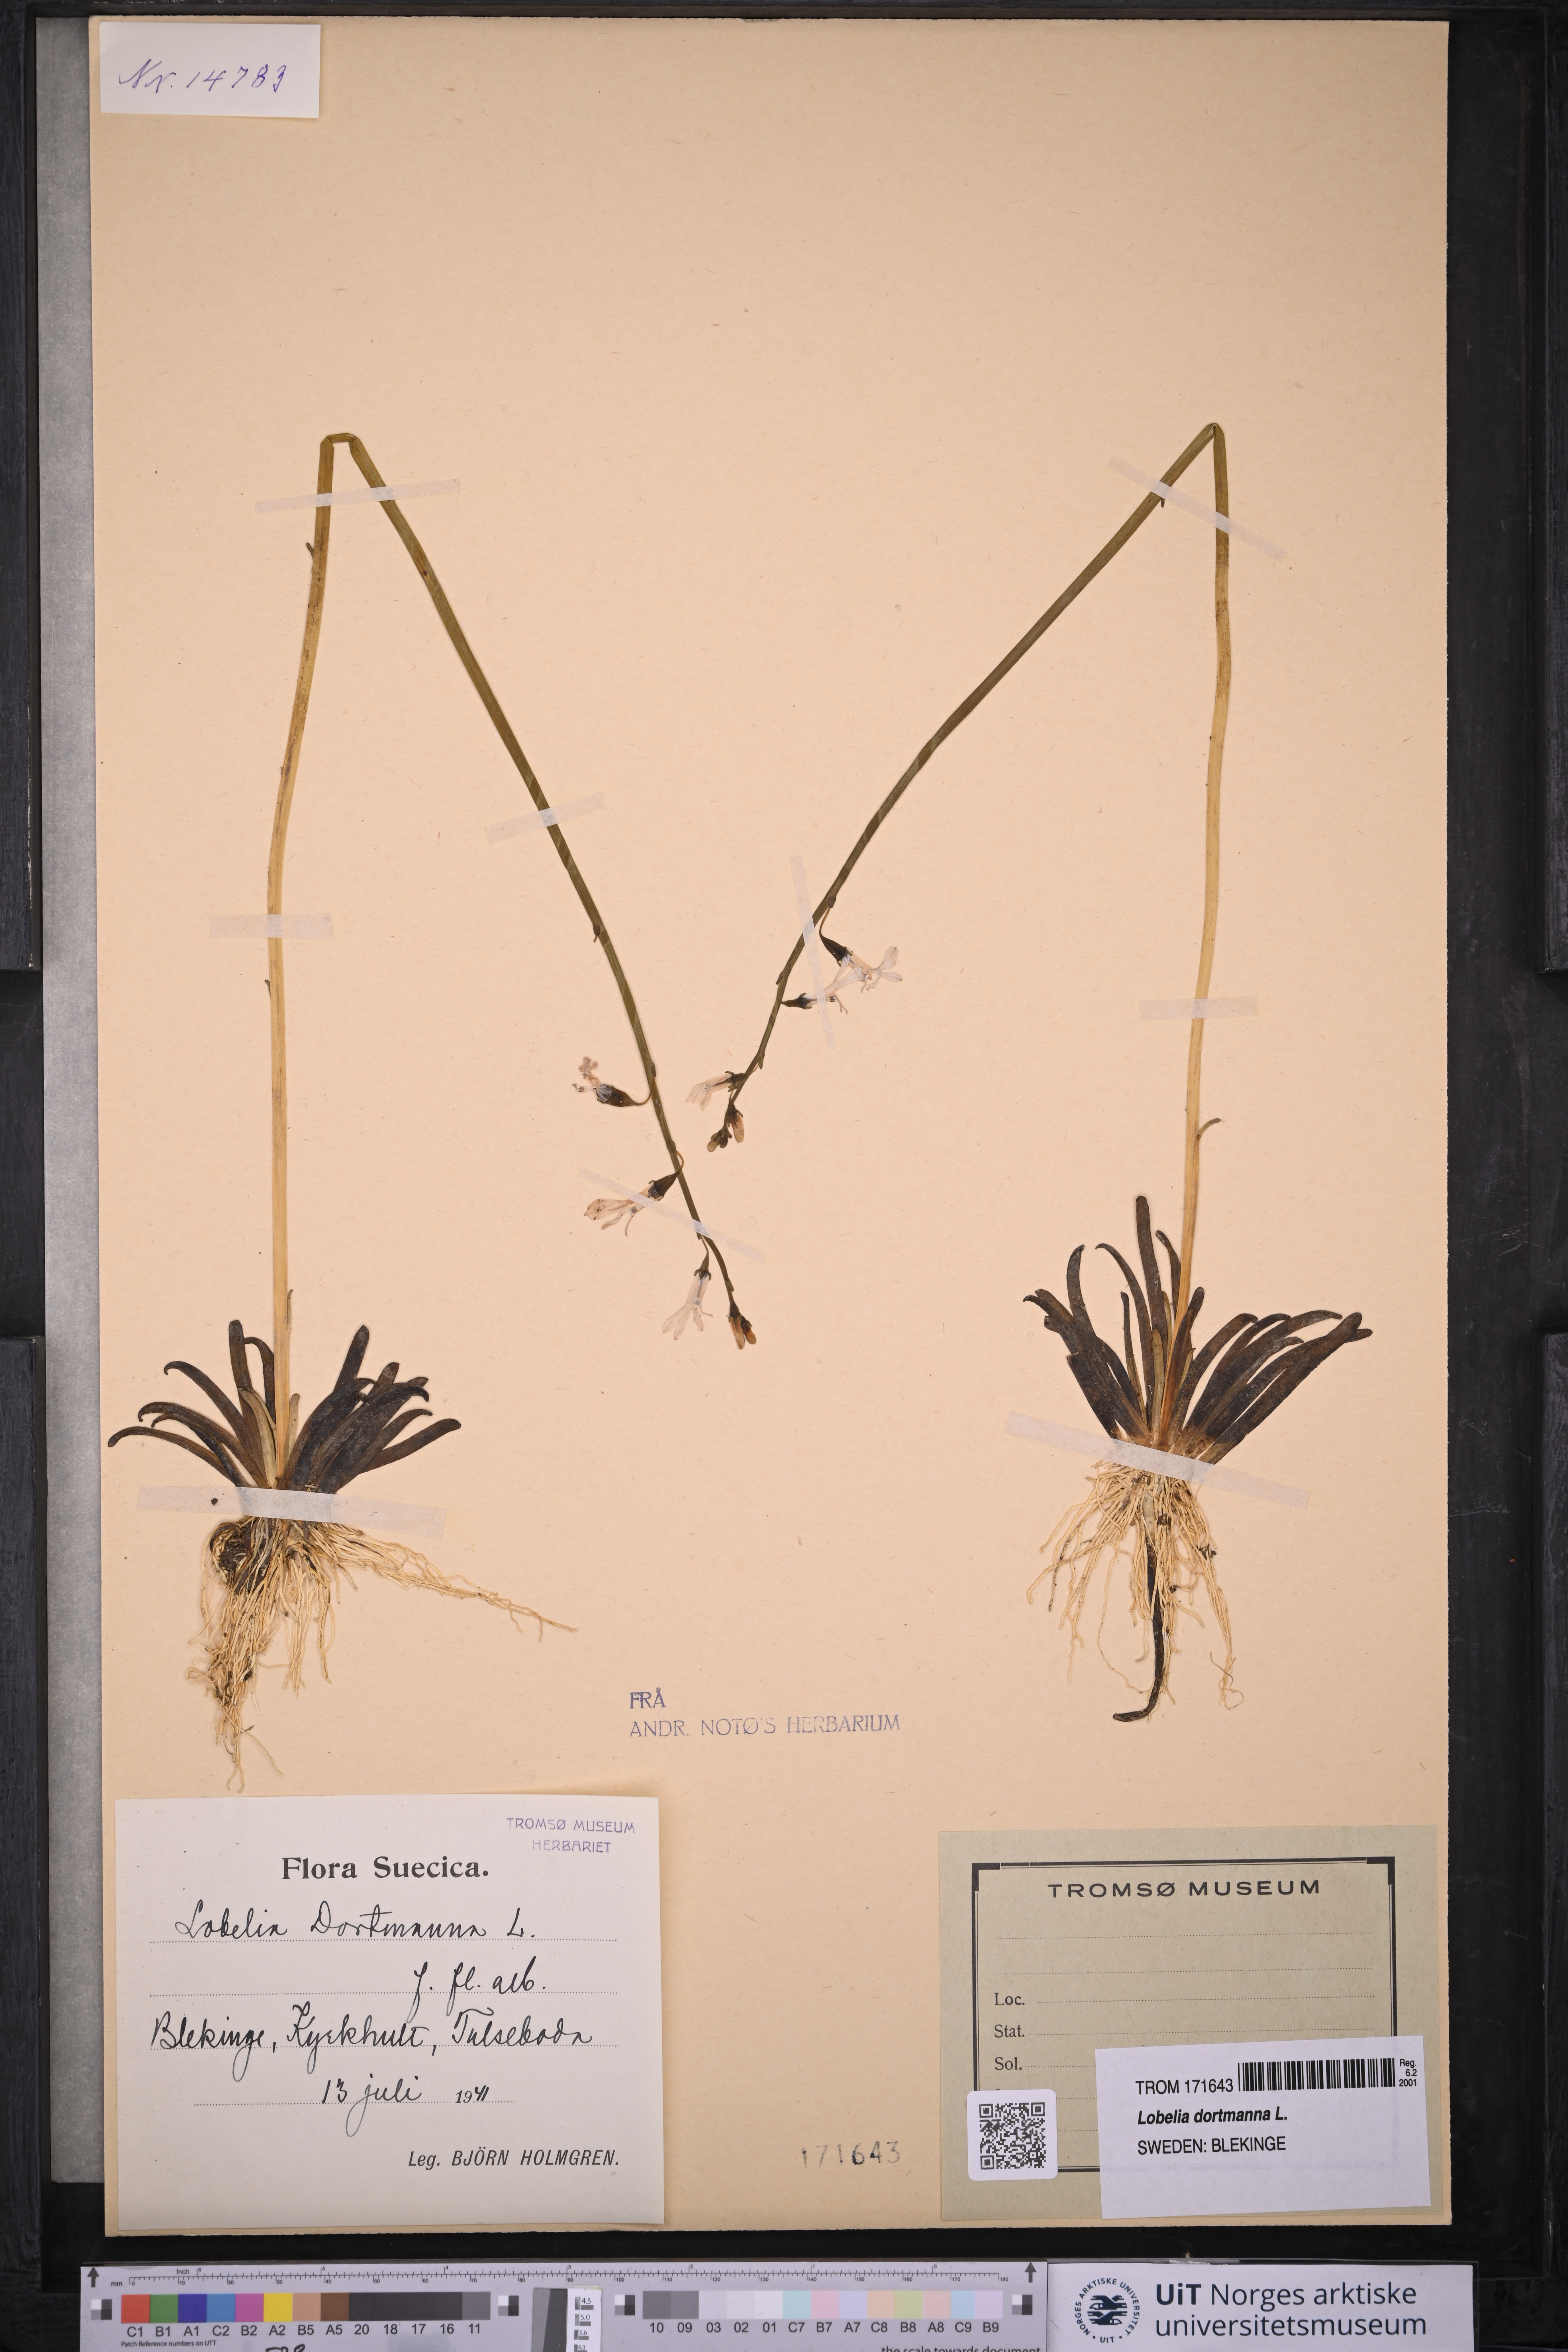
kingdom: Plantae
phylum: Tracheophyta
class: Magnoliopsida
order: Asterales
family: Campanulaceae
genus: Lobelia
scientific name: Lobelia dortmanna
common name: Water lobelia
